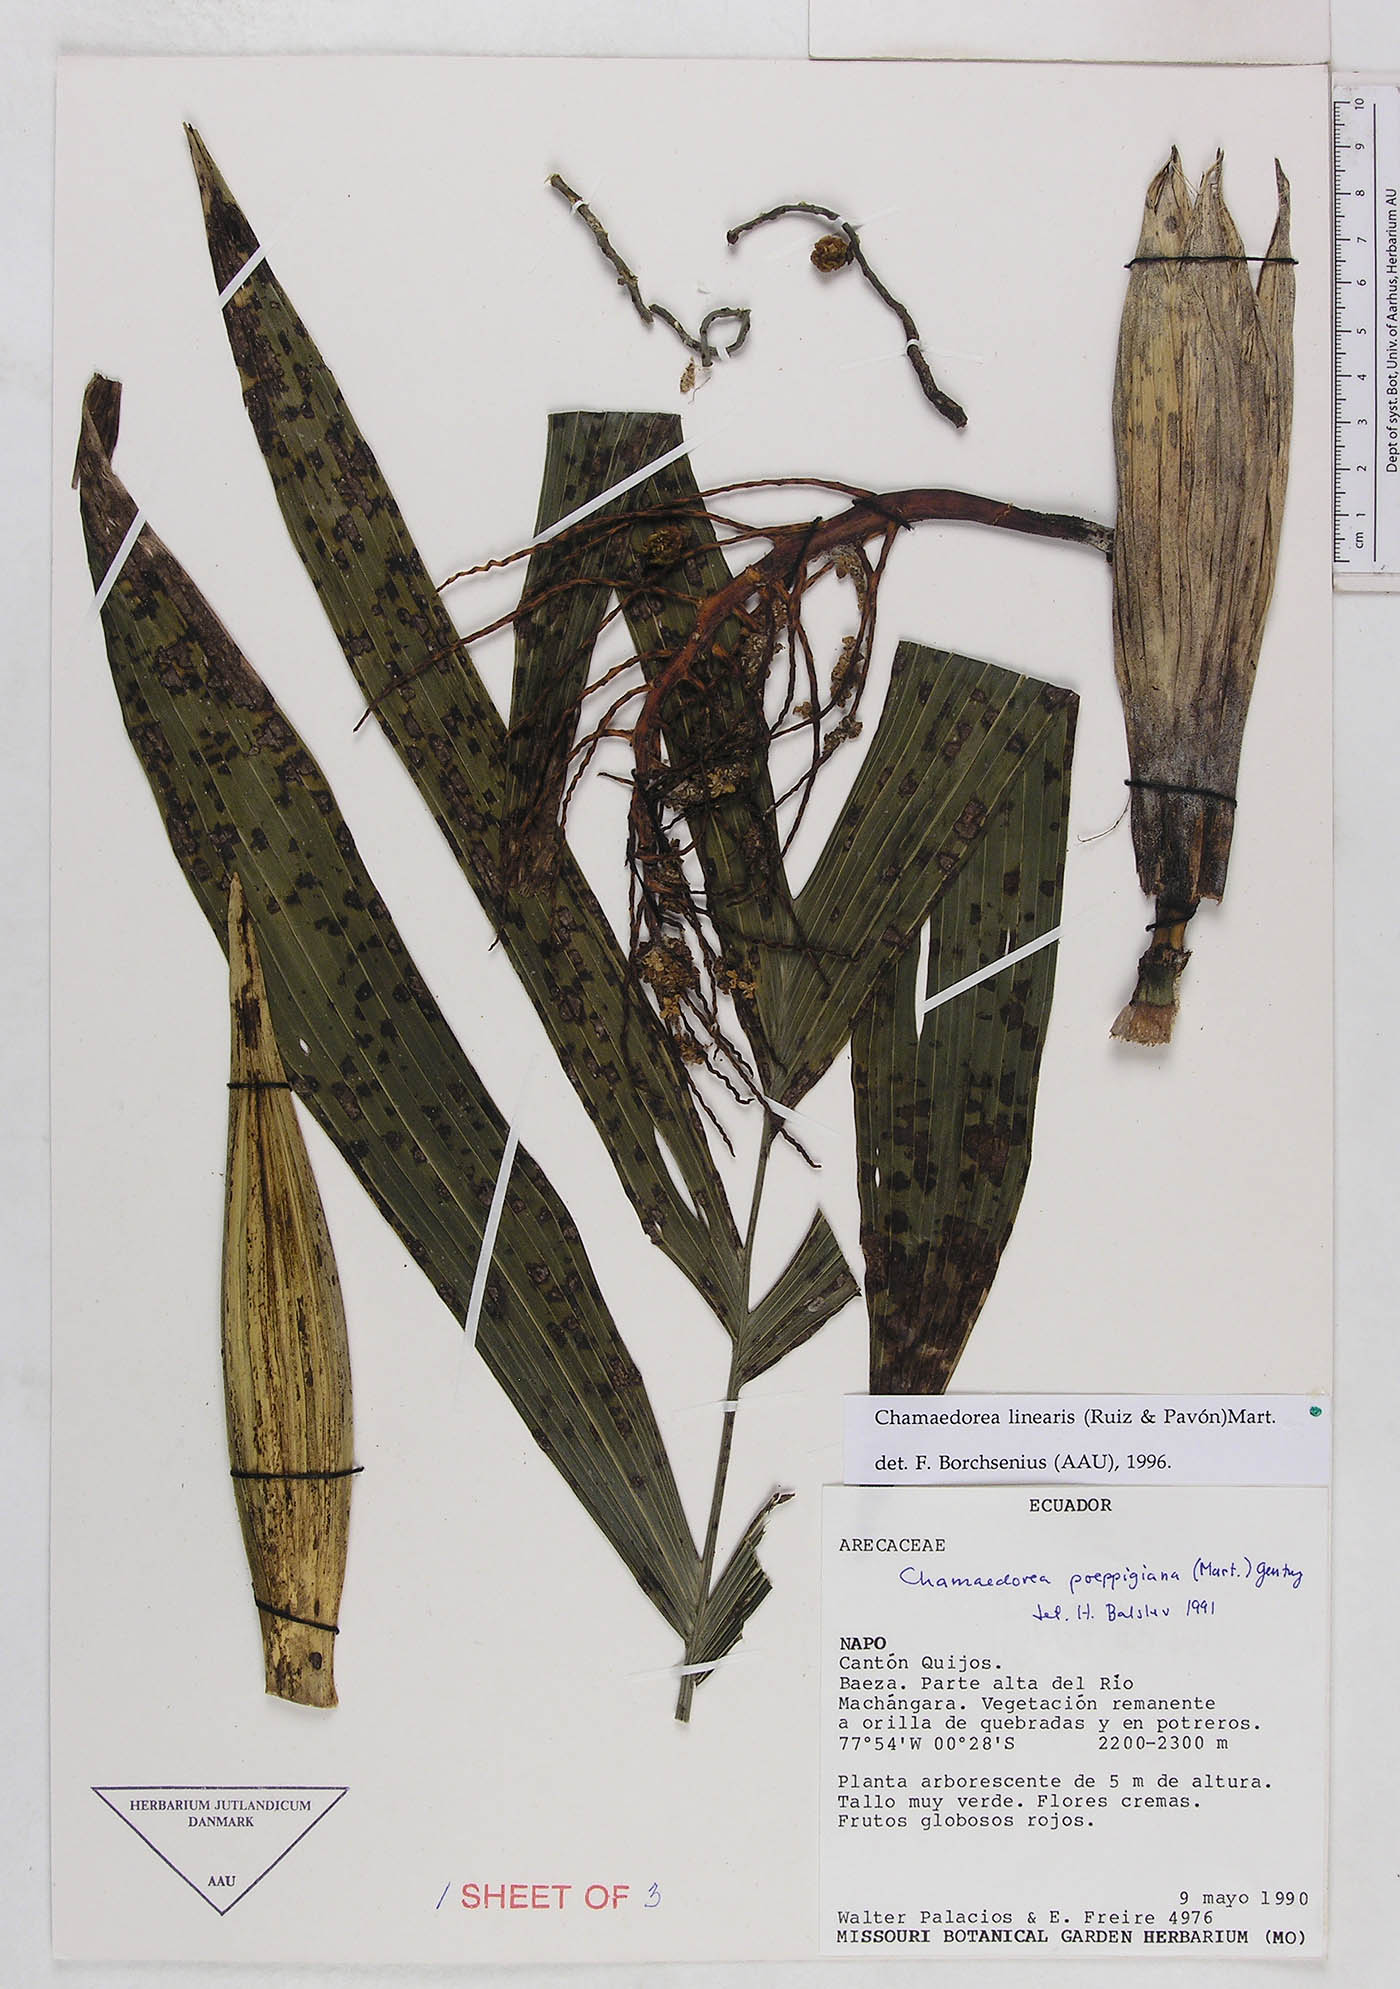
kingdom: Plantae
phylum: Tracheophyta
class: Liliopsida
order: Arecales
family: Arecaceae
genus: Chamaedorea
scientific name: Chamaedorea linearis
